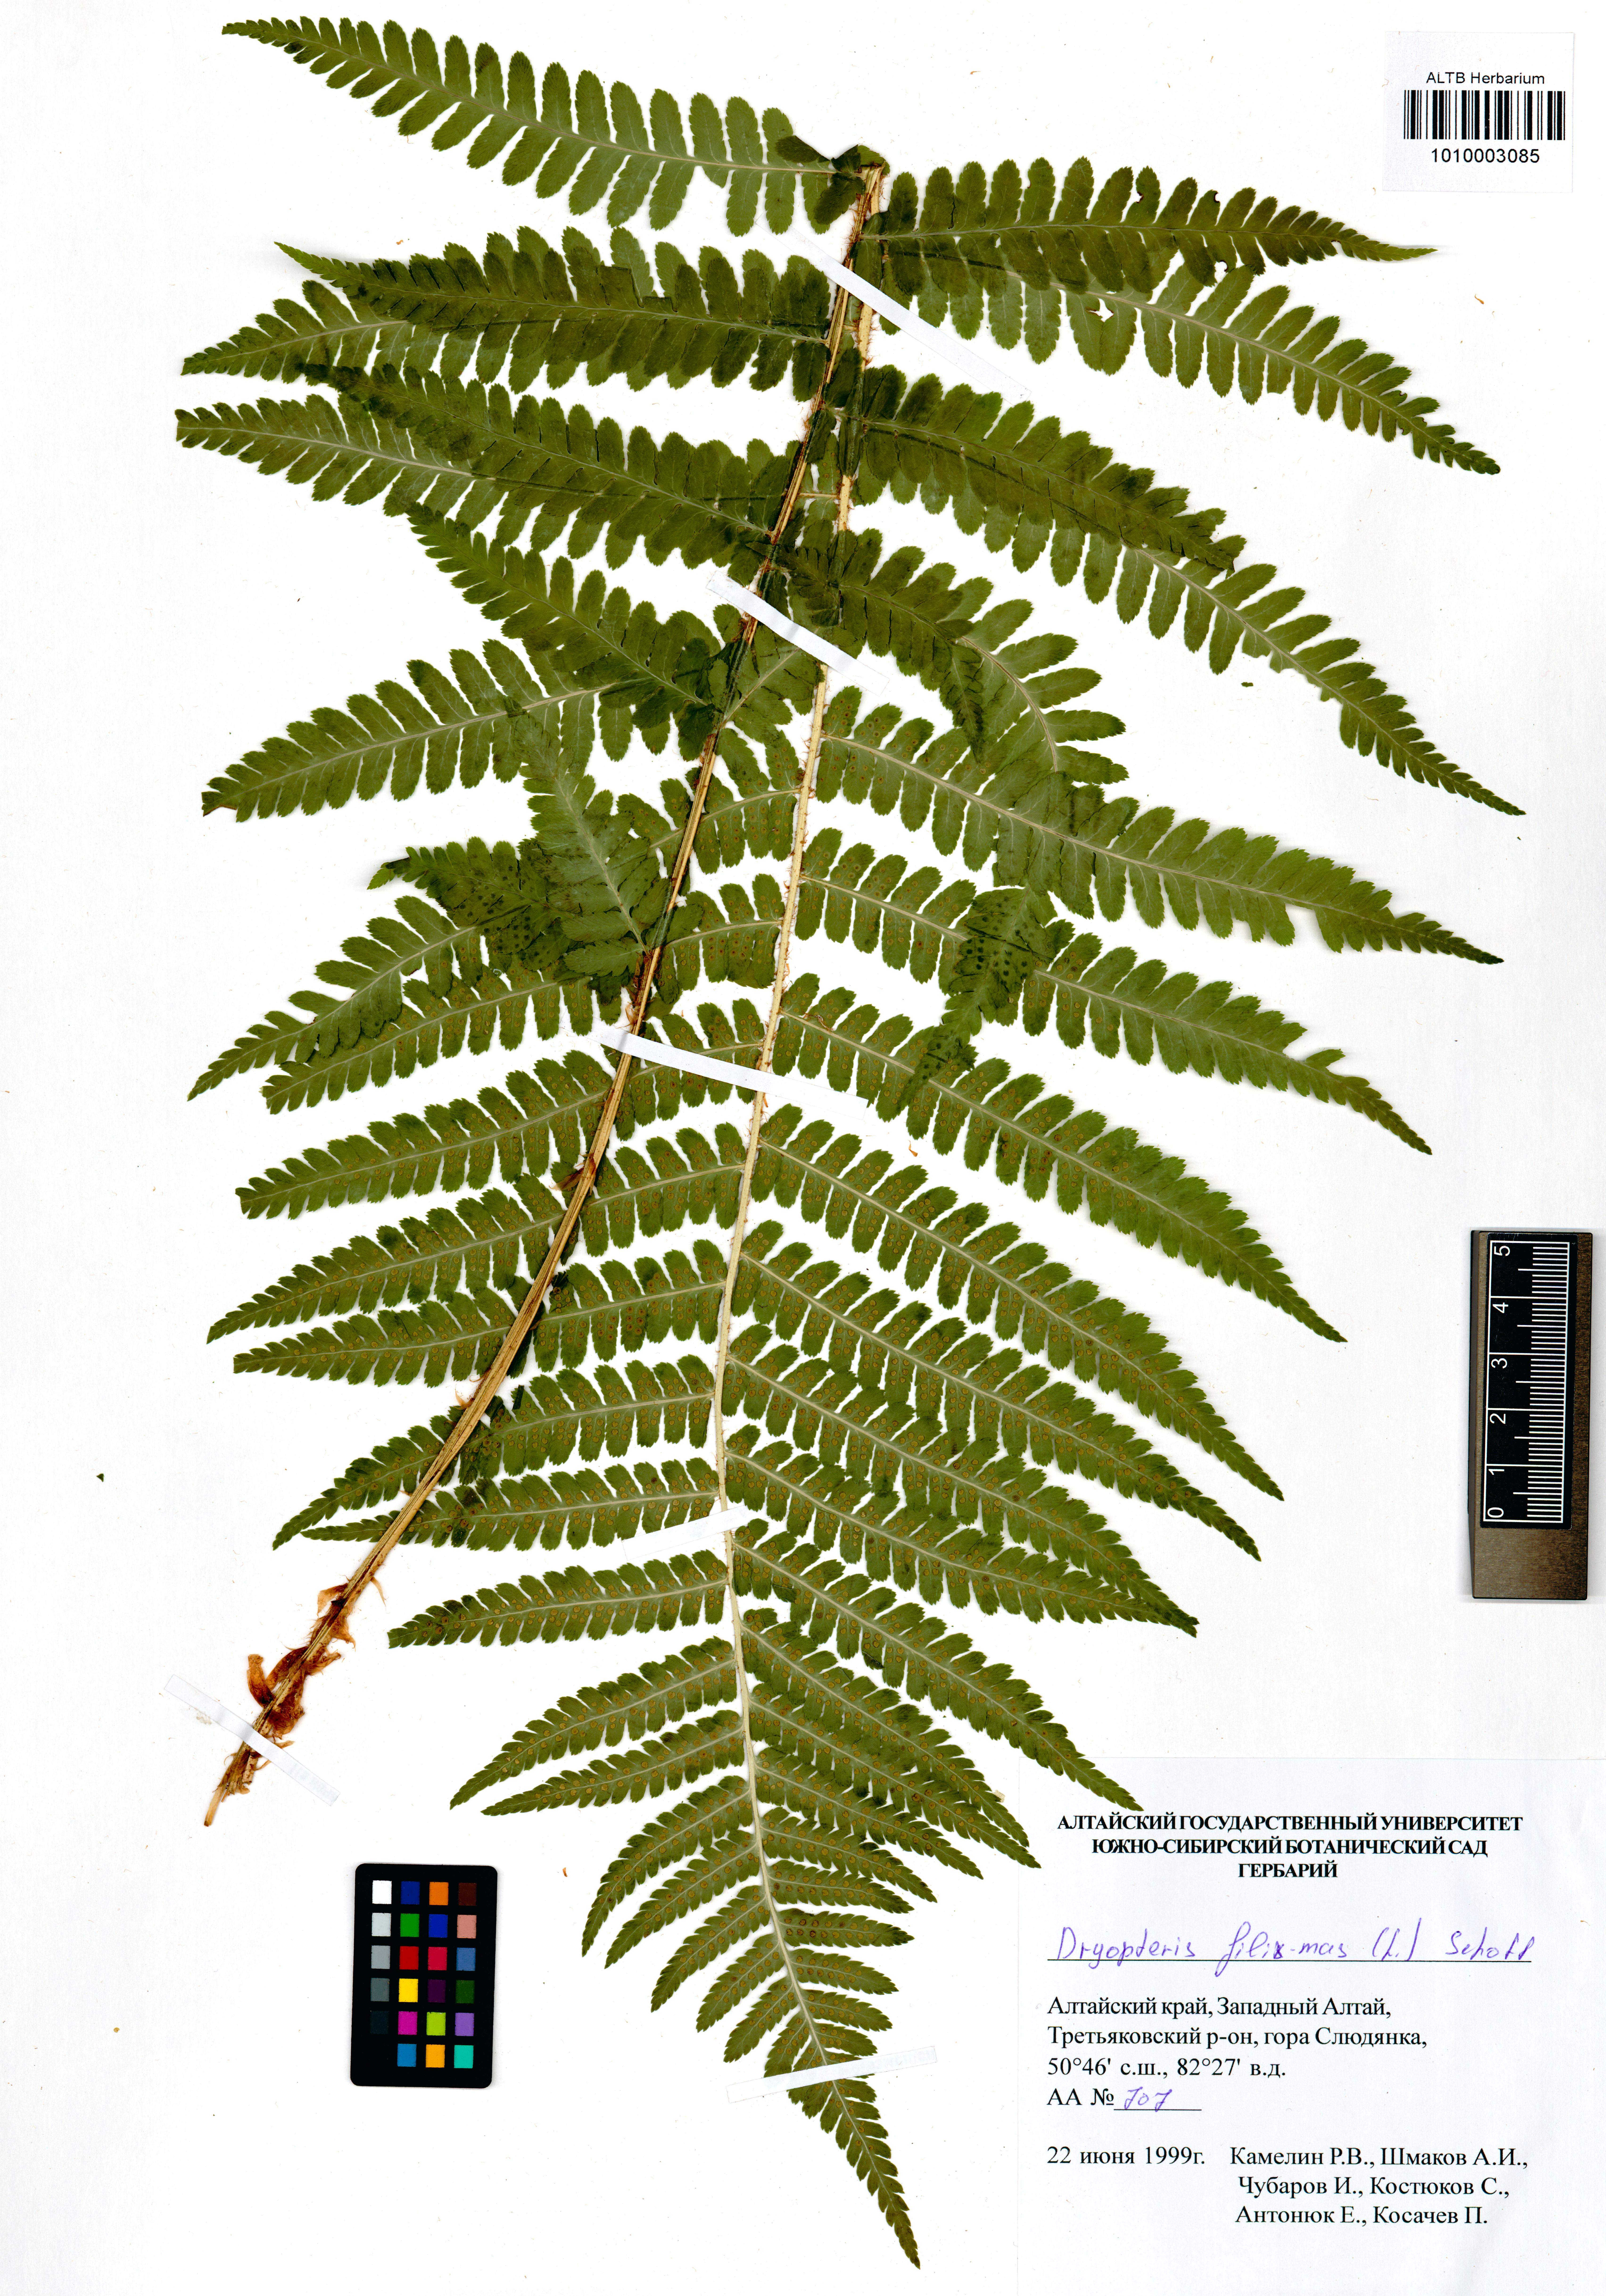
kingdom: Plantae
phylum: Tracheophyta
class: Polypodiopsida
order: Polypodiales
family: Dryopteridaceae
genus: Dryopteris
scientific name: Dryopteris filix-mas
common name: Male fern
